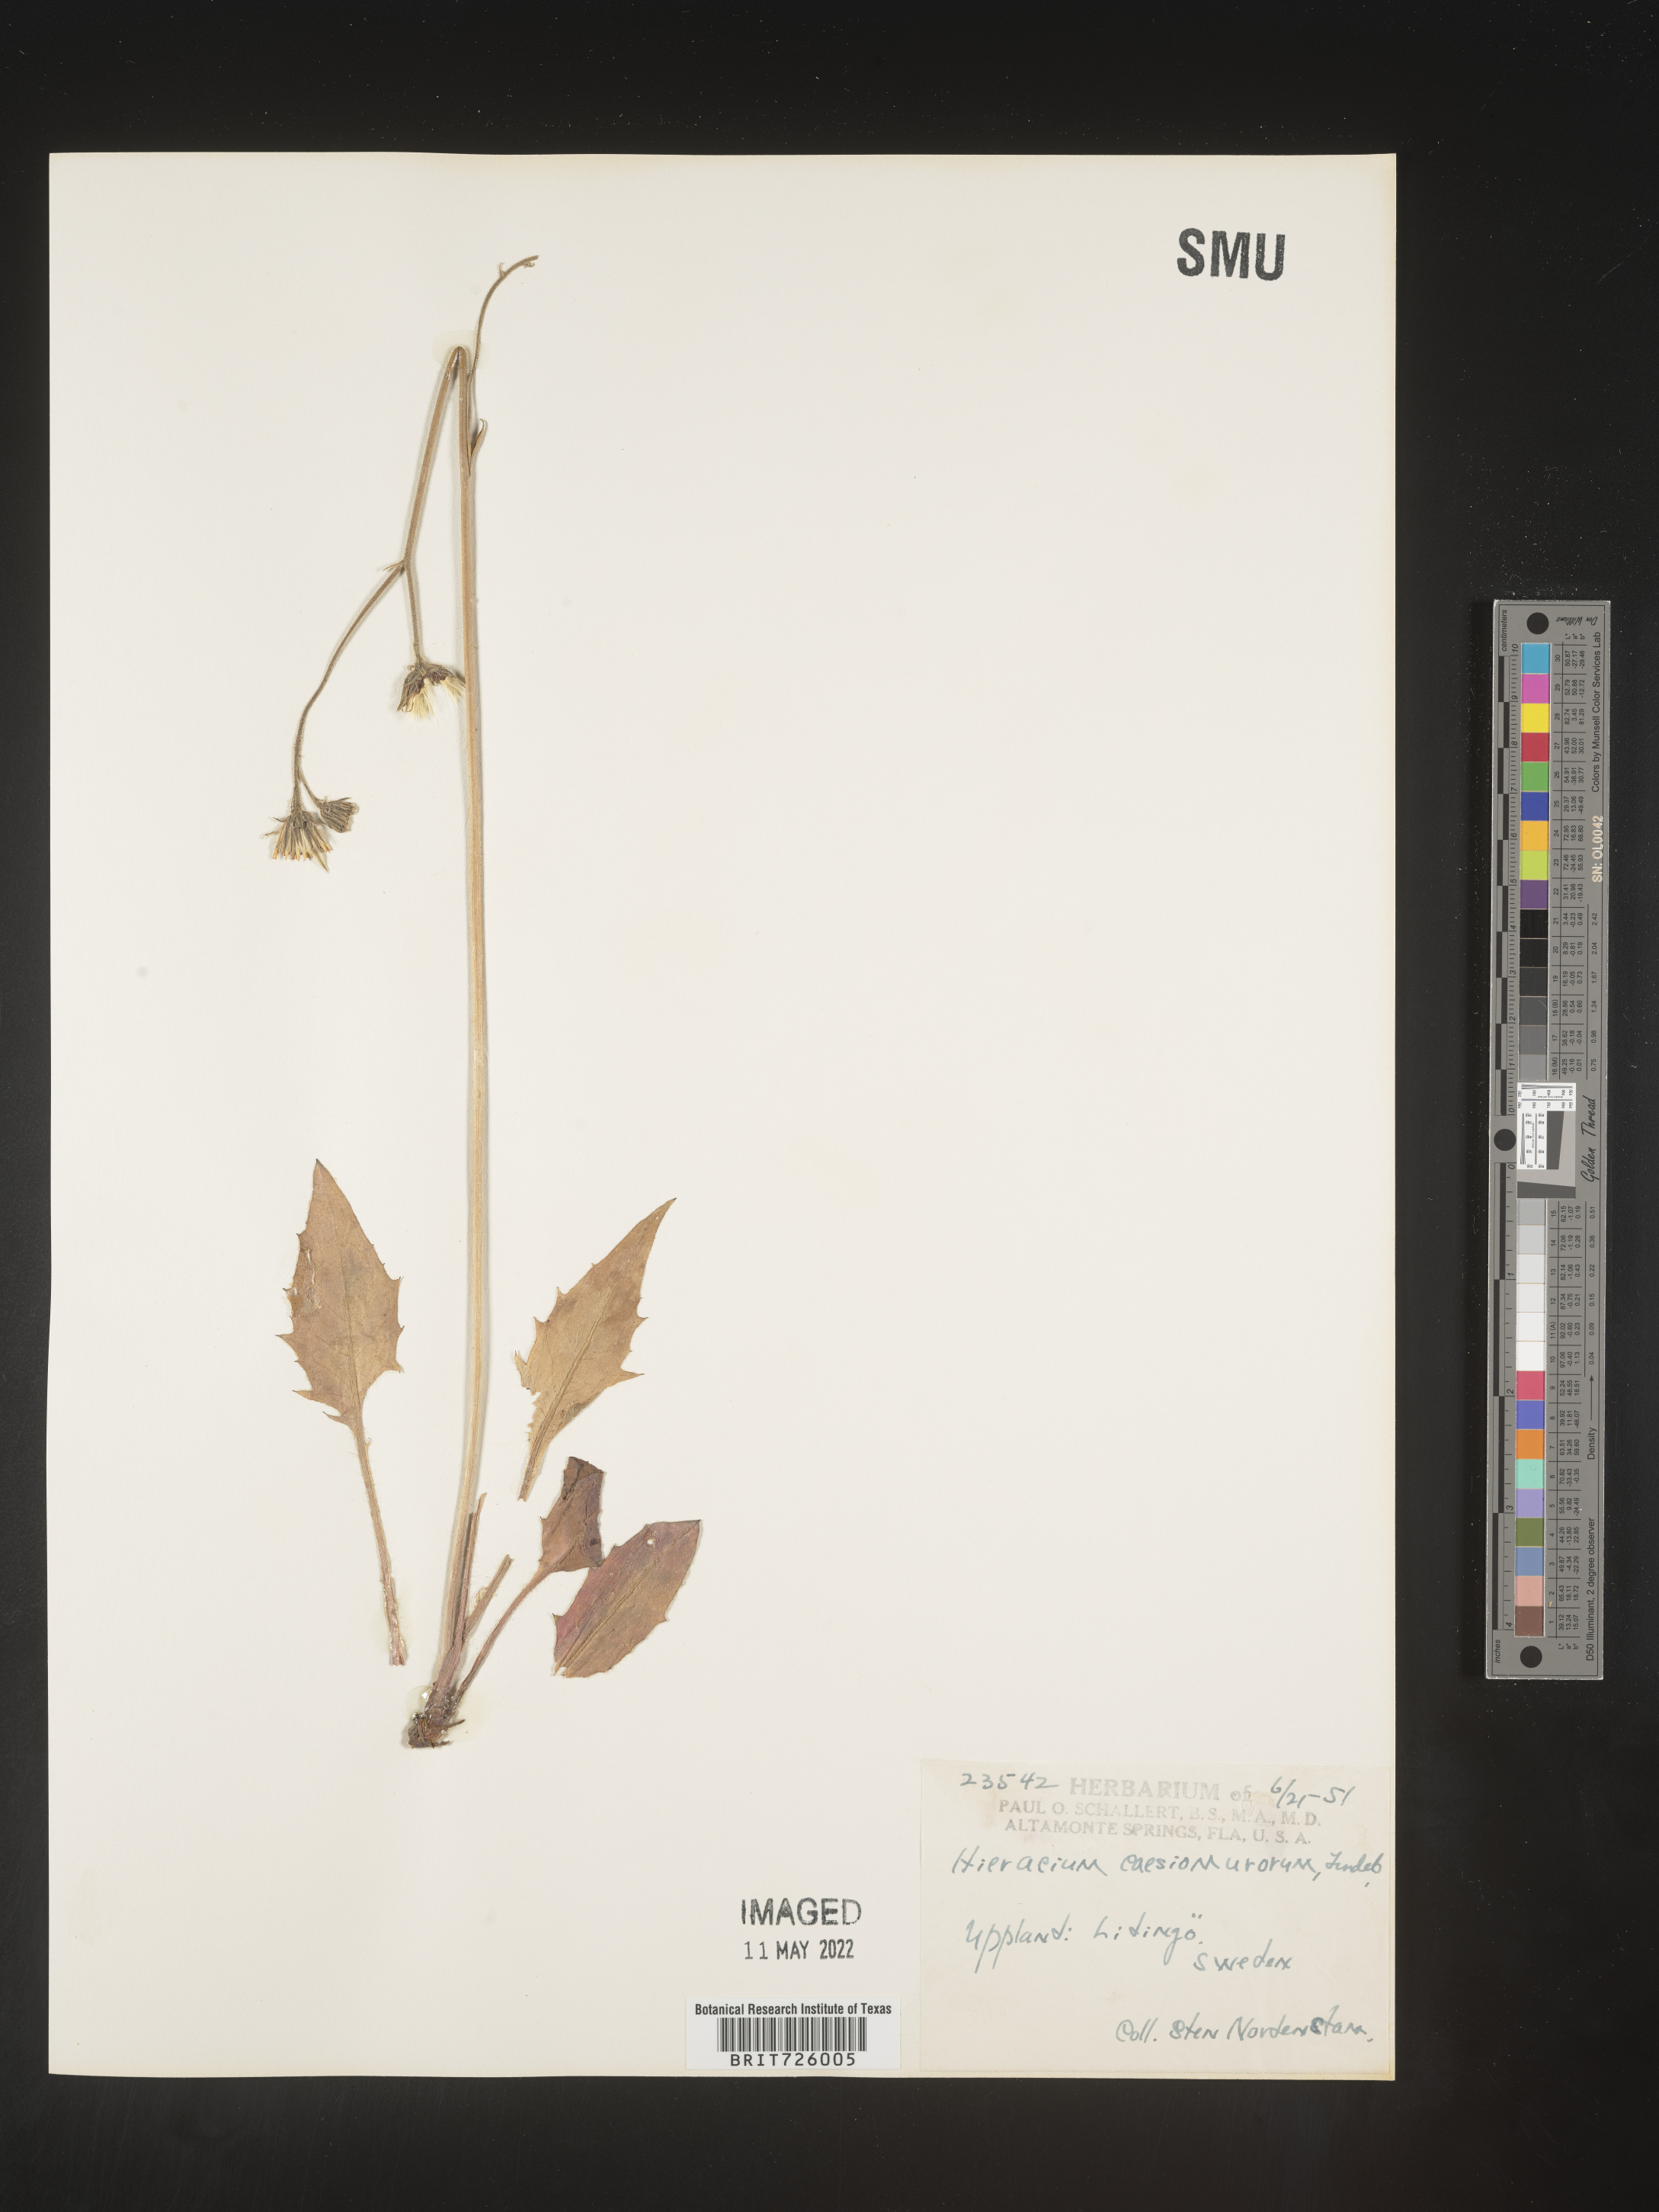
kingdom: Plantae
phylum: Tracheophyta
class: Magnoliopsida
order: Asterales
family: Asteraceae
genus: Hieracium
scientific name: Hieracium
